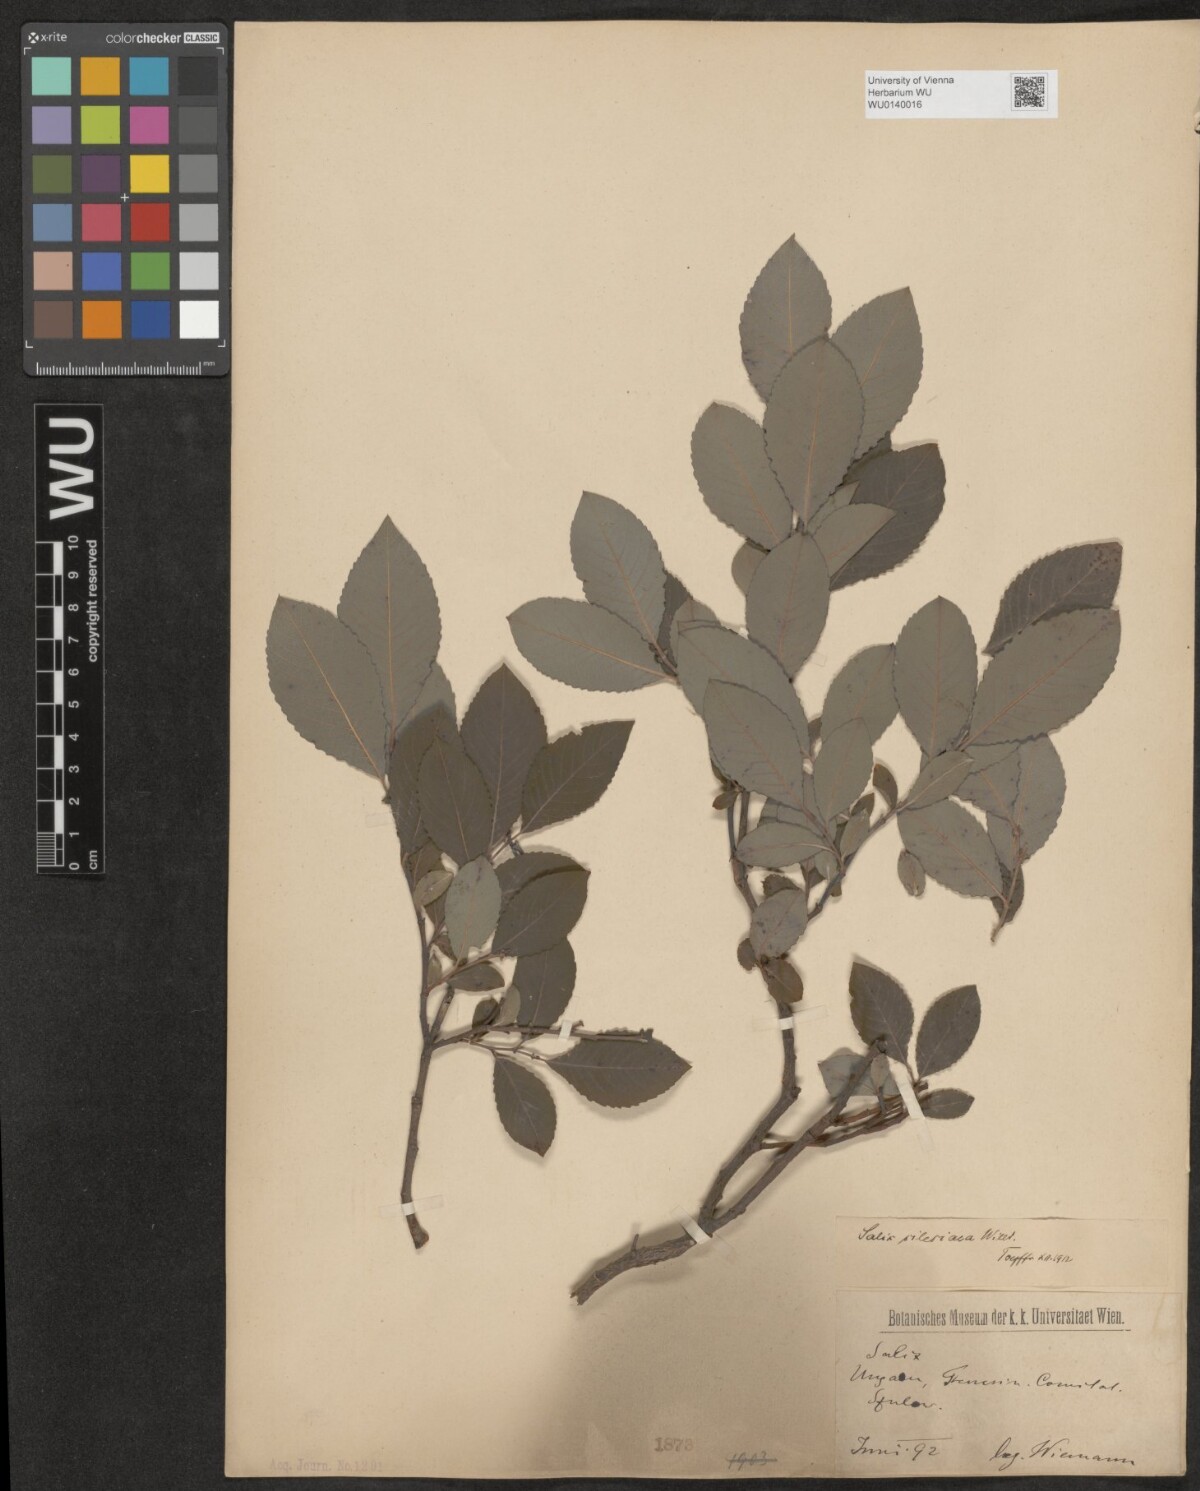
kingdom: Plantae
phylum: Tracheophyta
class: Magnoliopsida
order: Malpighiales
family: Salicaceae
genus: Salix
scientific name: Salix silesiaca
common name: Silesian willow
